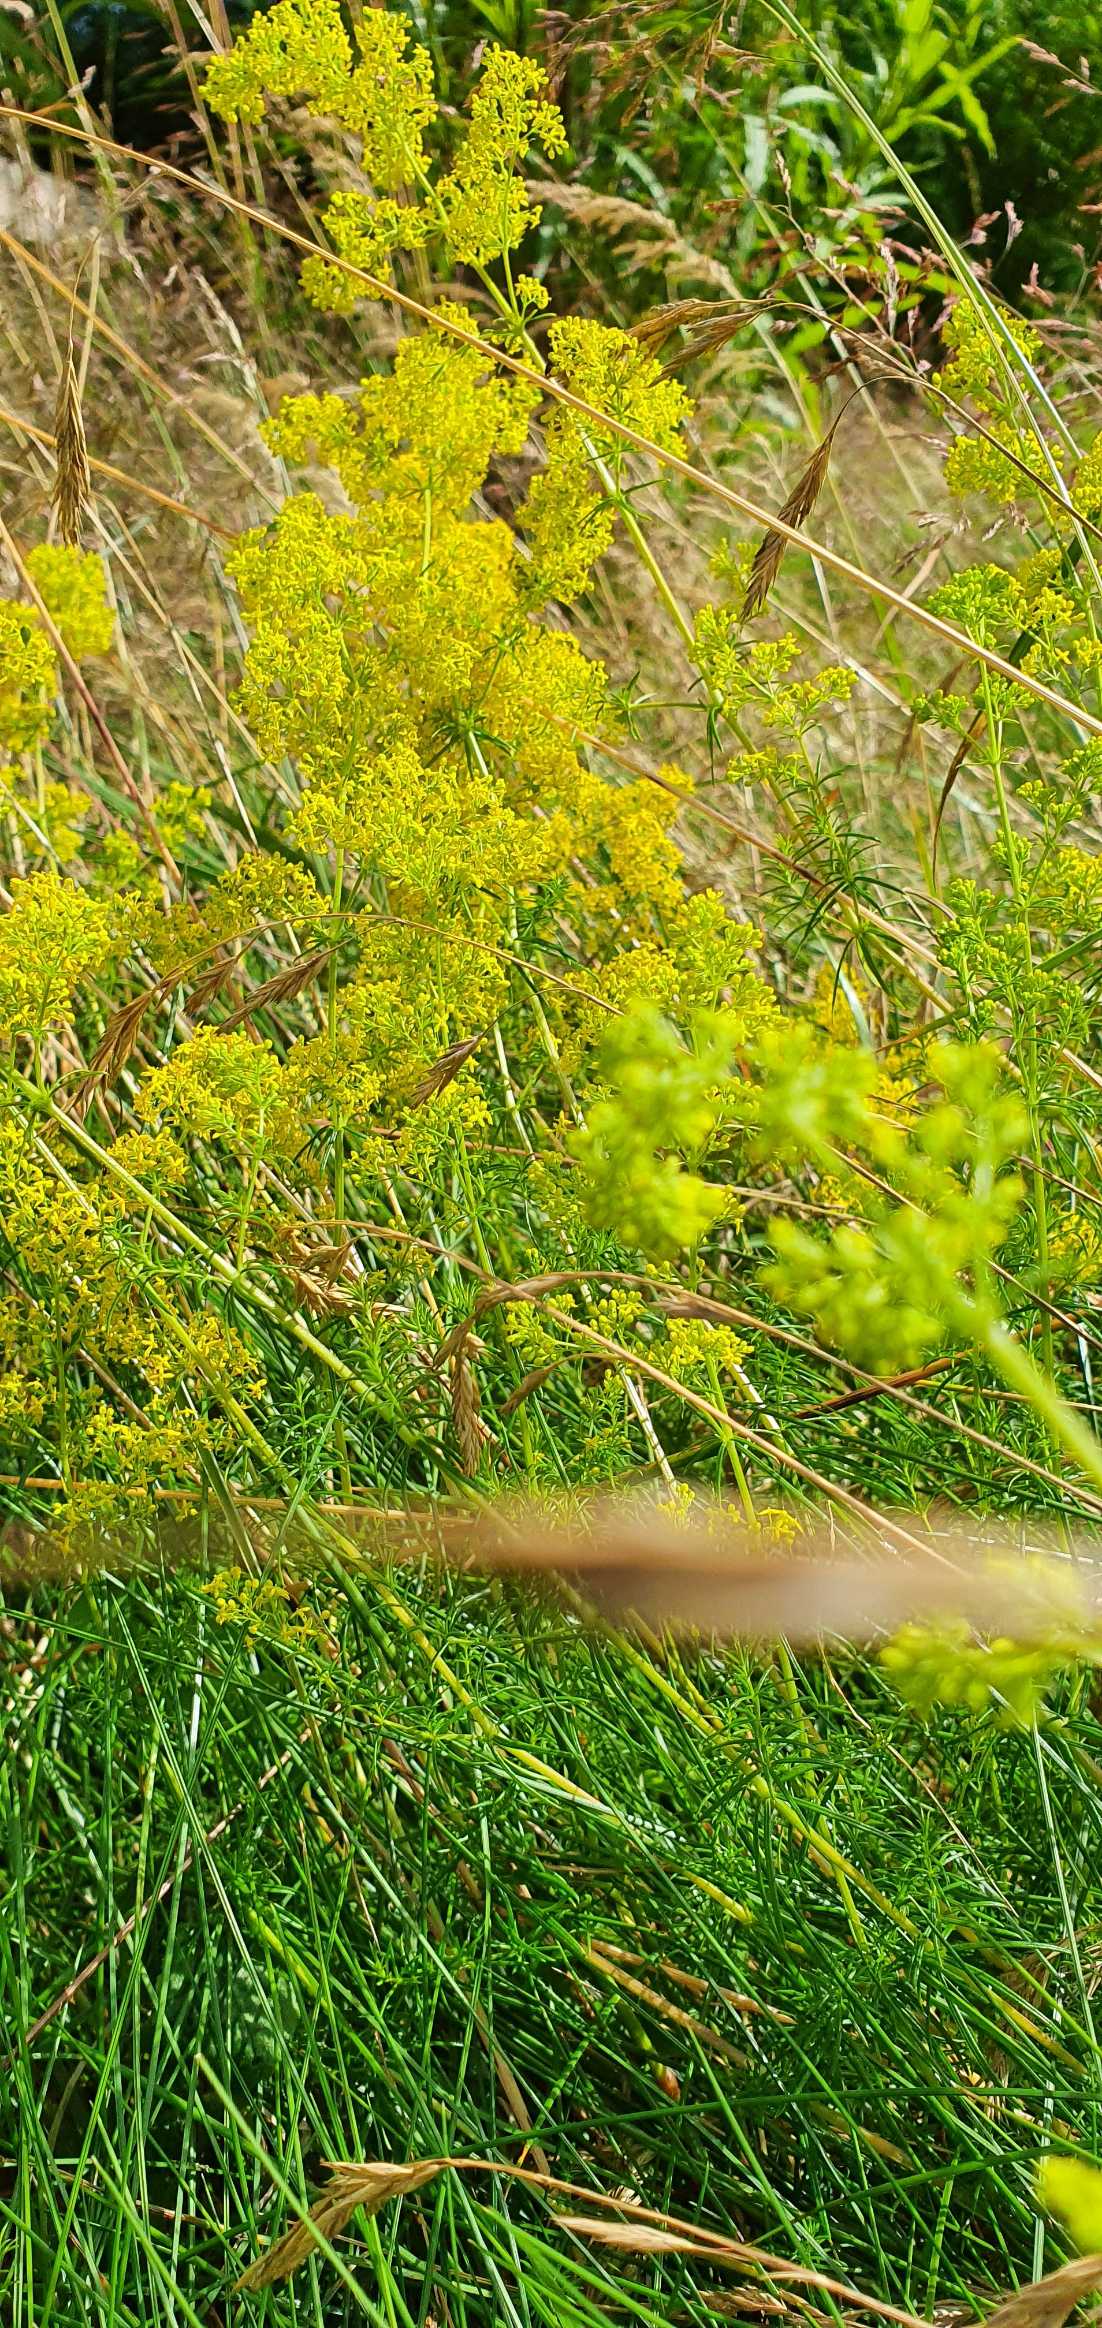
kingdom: Plantae
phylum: Tracheophyta
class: Magnoliopsida
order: Gentianales
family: Rubiaceae
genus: Galium
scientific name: Galium verum
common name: Gul snerre
